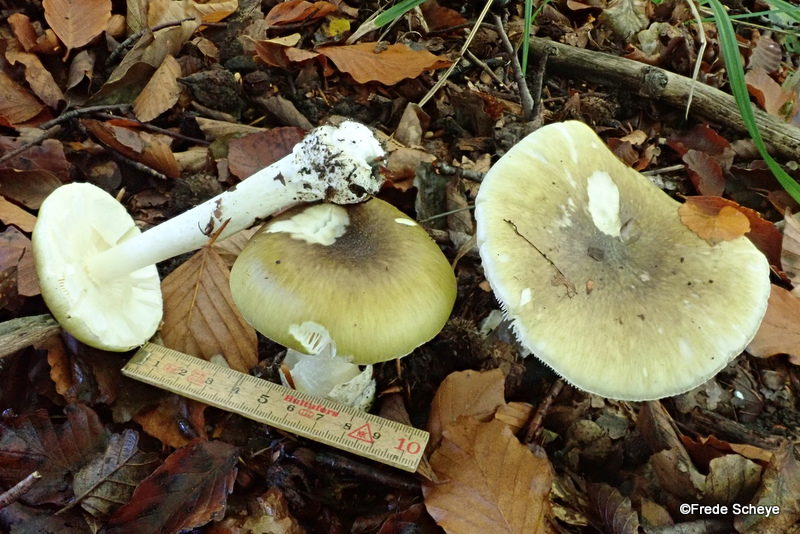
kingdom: Fungi
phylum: Basidiomycota
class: Agaricomycetes
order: Agaricales
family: Amanitaceae
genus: Amanita
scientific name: Amanita phalloides
